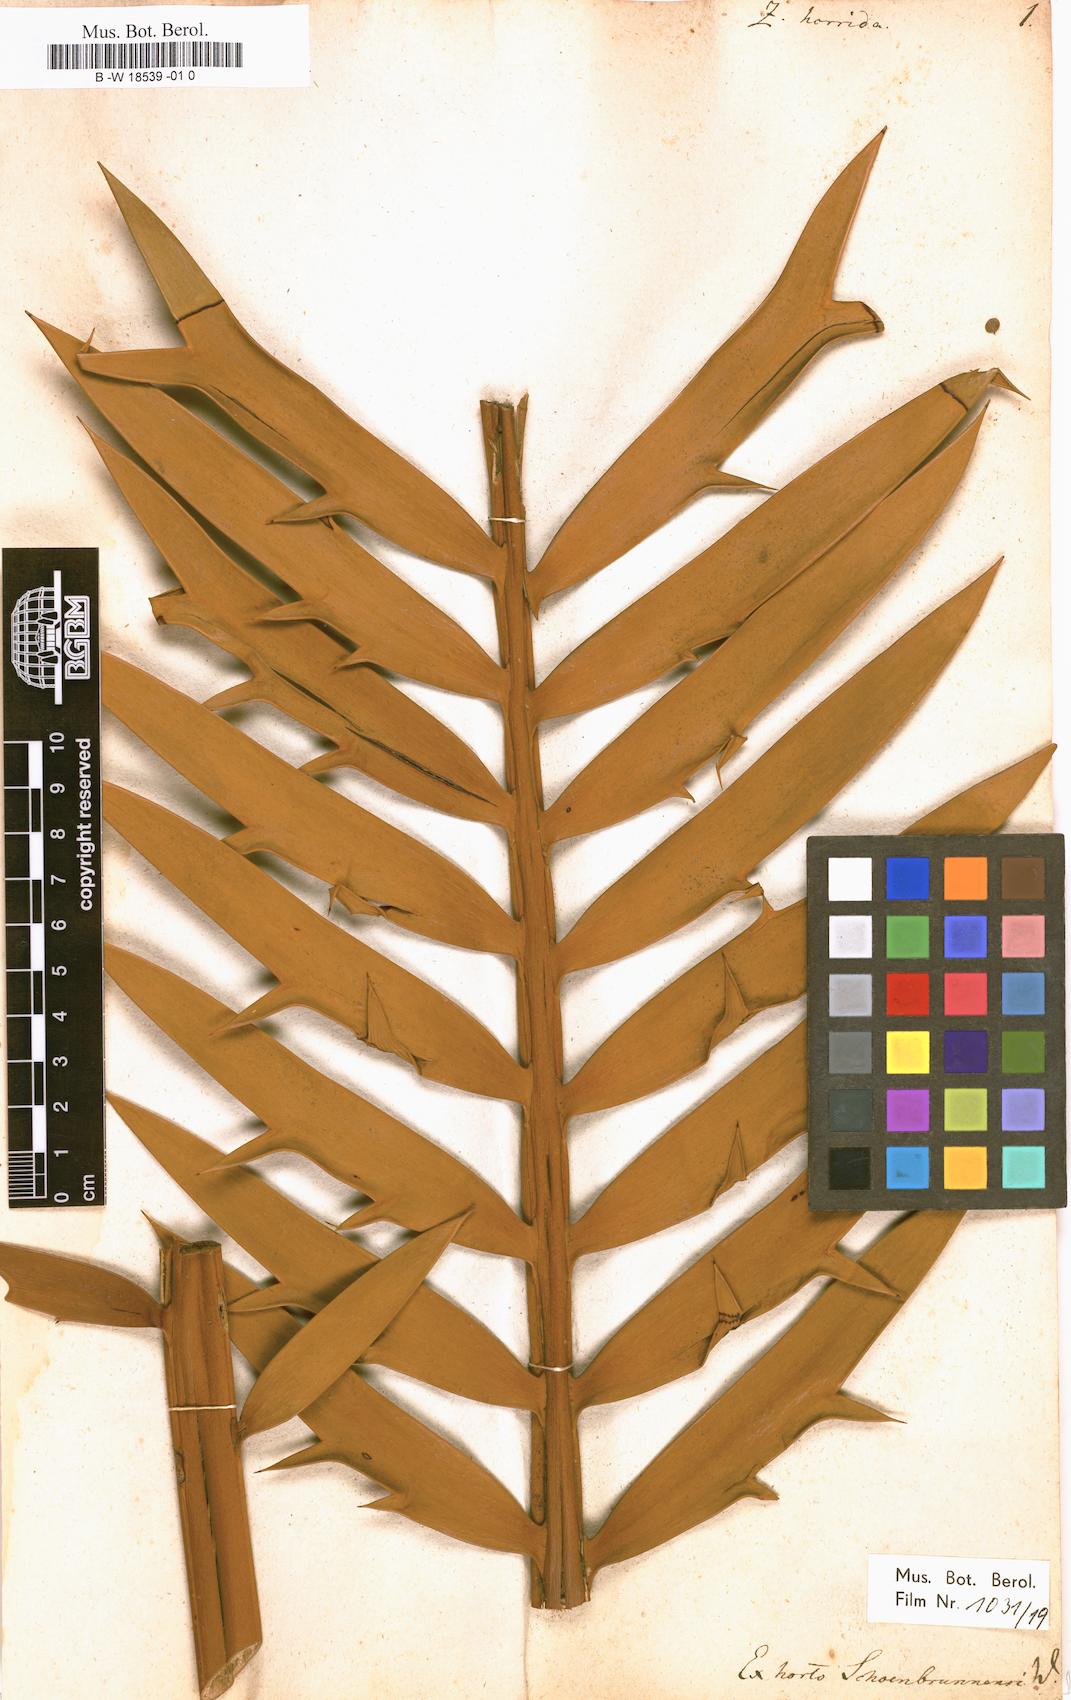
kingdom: Plantae
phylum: Tracheophyta
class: Cycadopsida
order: Cycadales
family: Zamiaceae
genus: Zamia
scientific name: Zamia horrida
